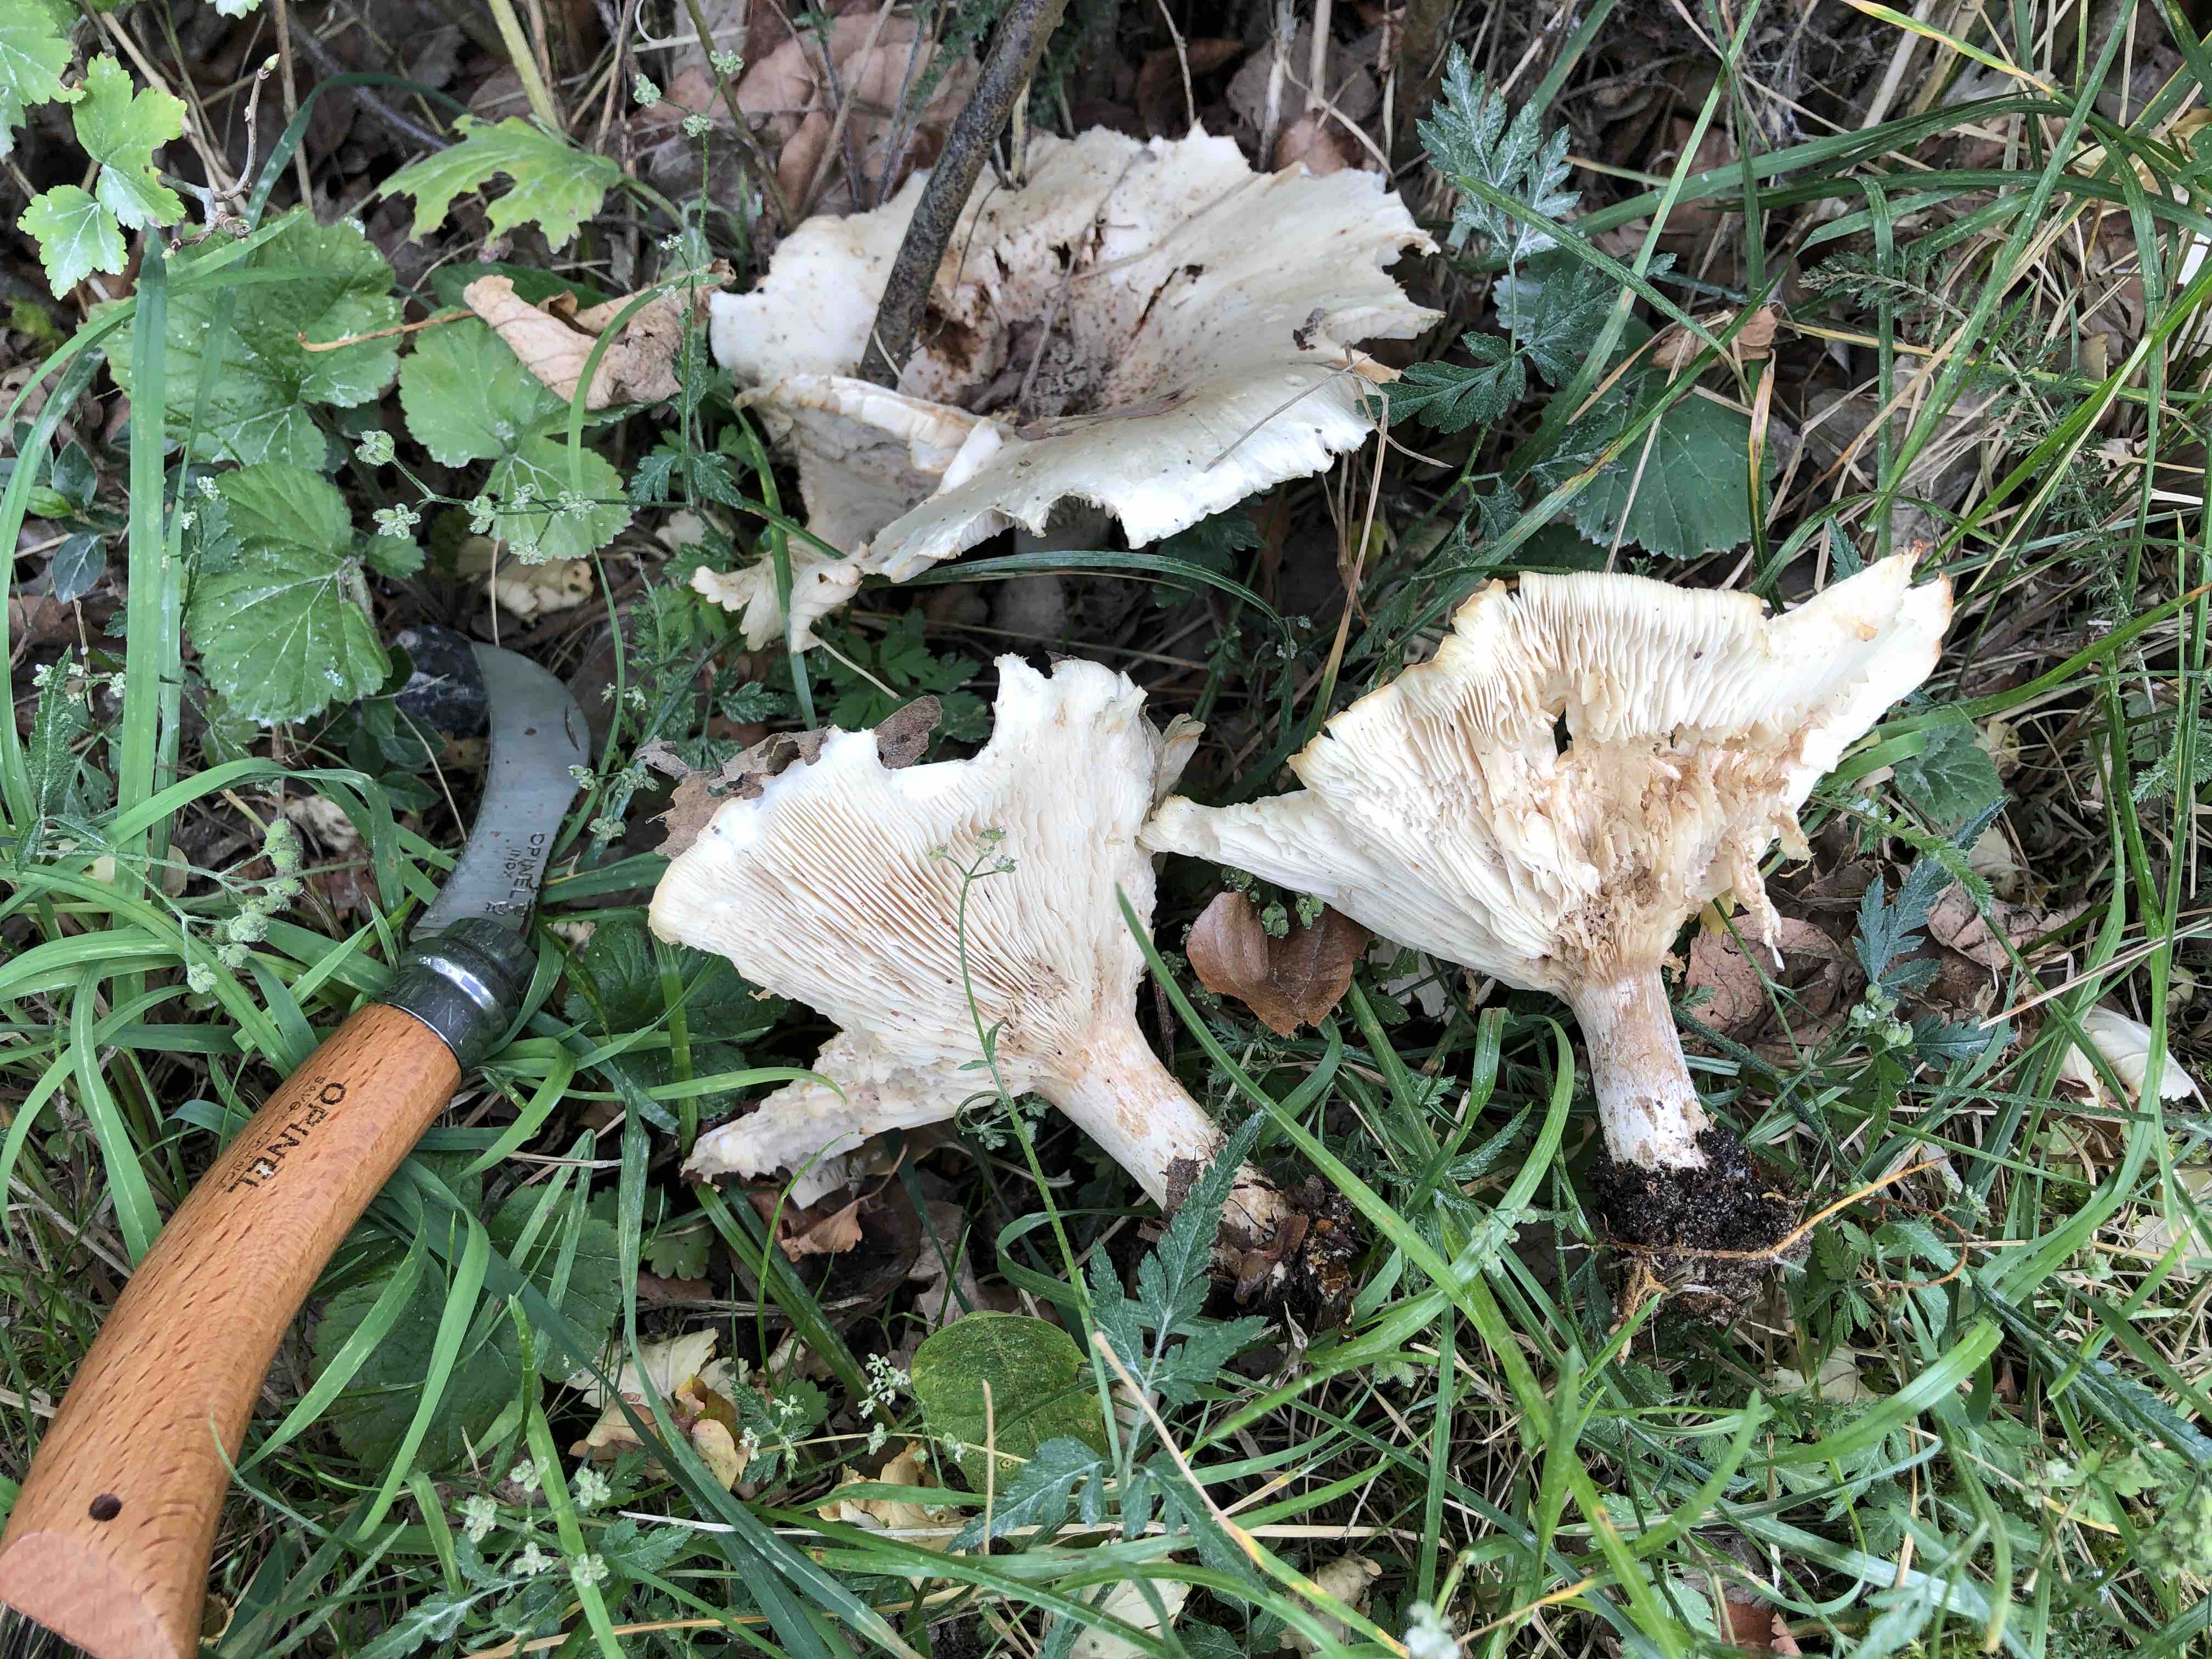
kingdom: Fungi
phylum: Basidiomycota
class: Agaricomycetes
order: Agaricales
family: Tricholomataceae
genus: Aspropaxillus
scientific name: Aspropaxillus giganteus
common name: kæmpe-tragtridderhat
